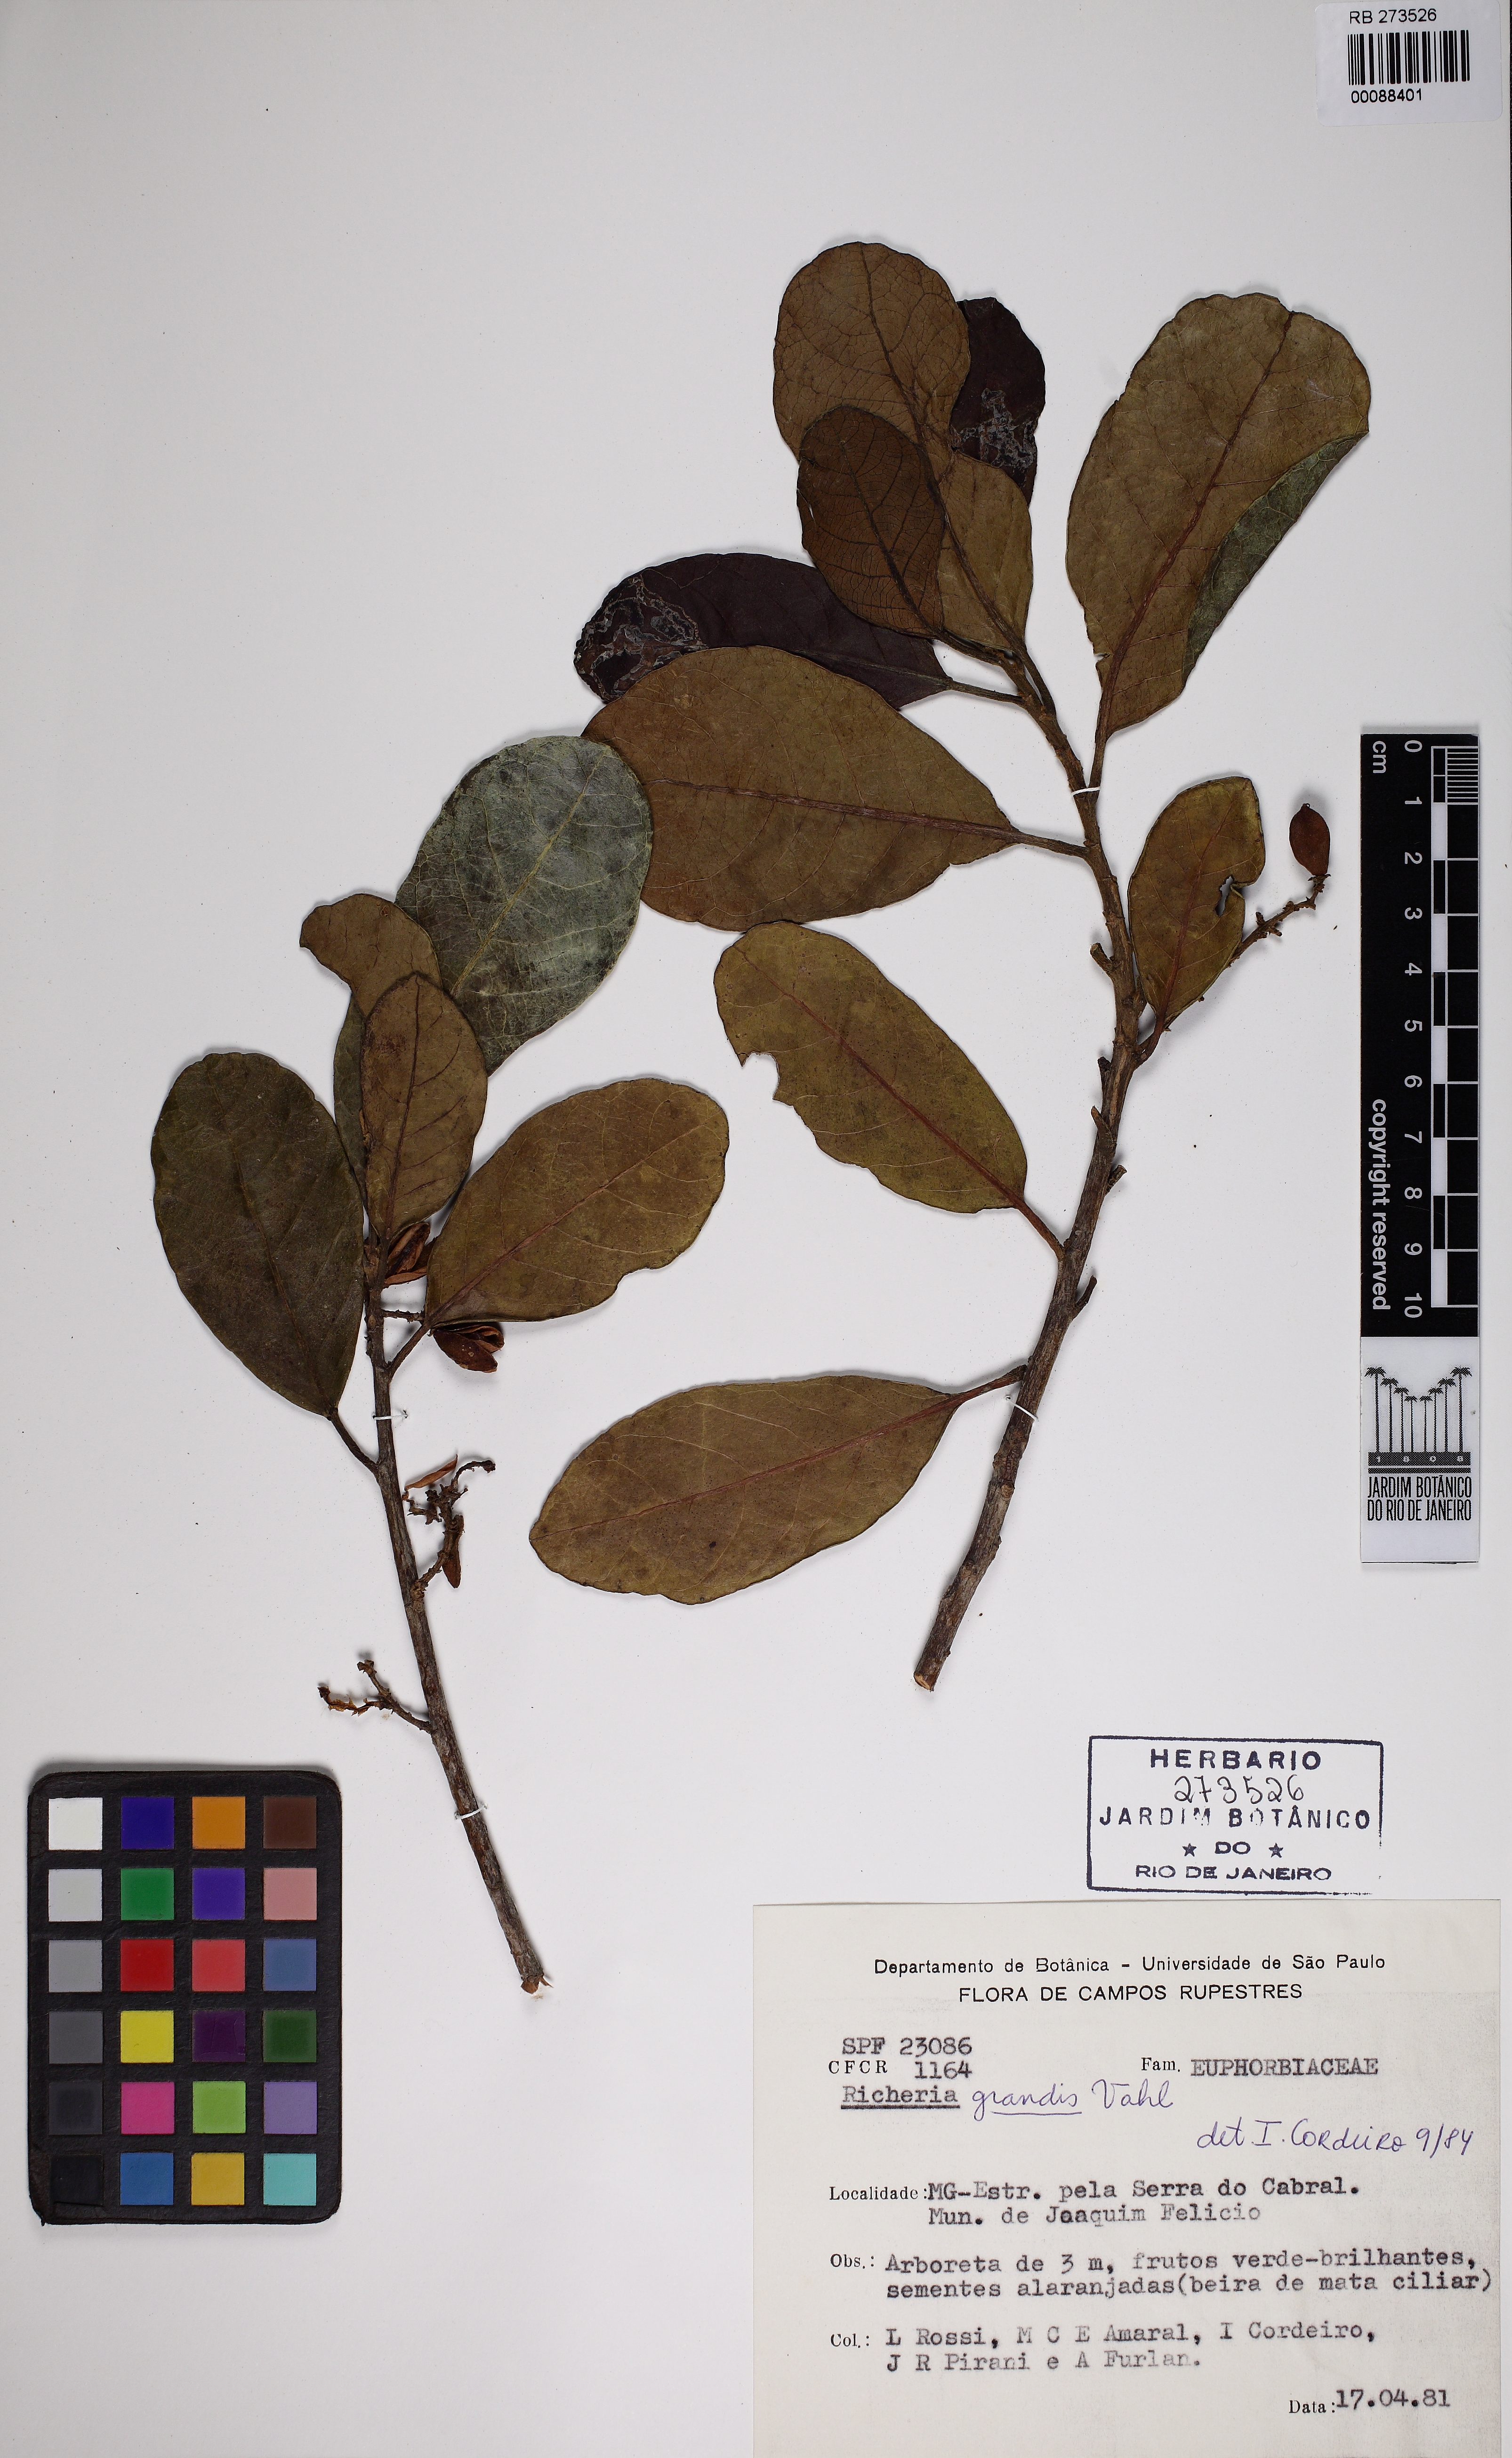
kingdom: Plantae
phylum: Tracheophyta
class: Magnoliopsida
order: Malpighiales
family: Phyllanthaceae
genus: Richeria
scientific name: Richeria grandis
